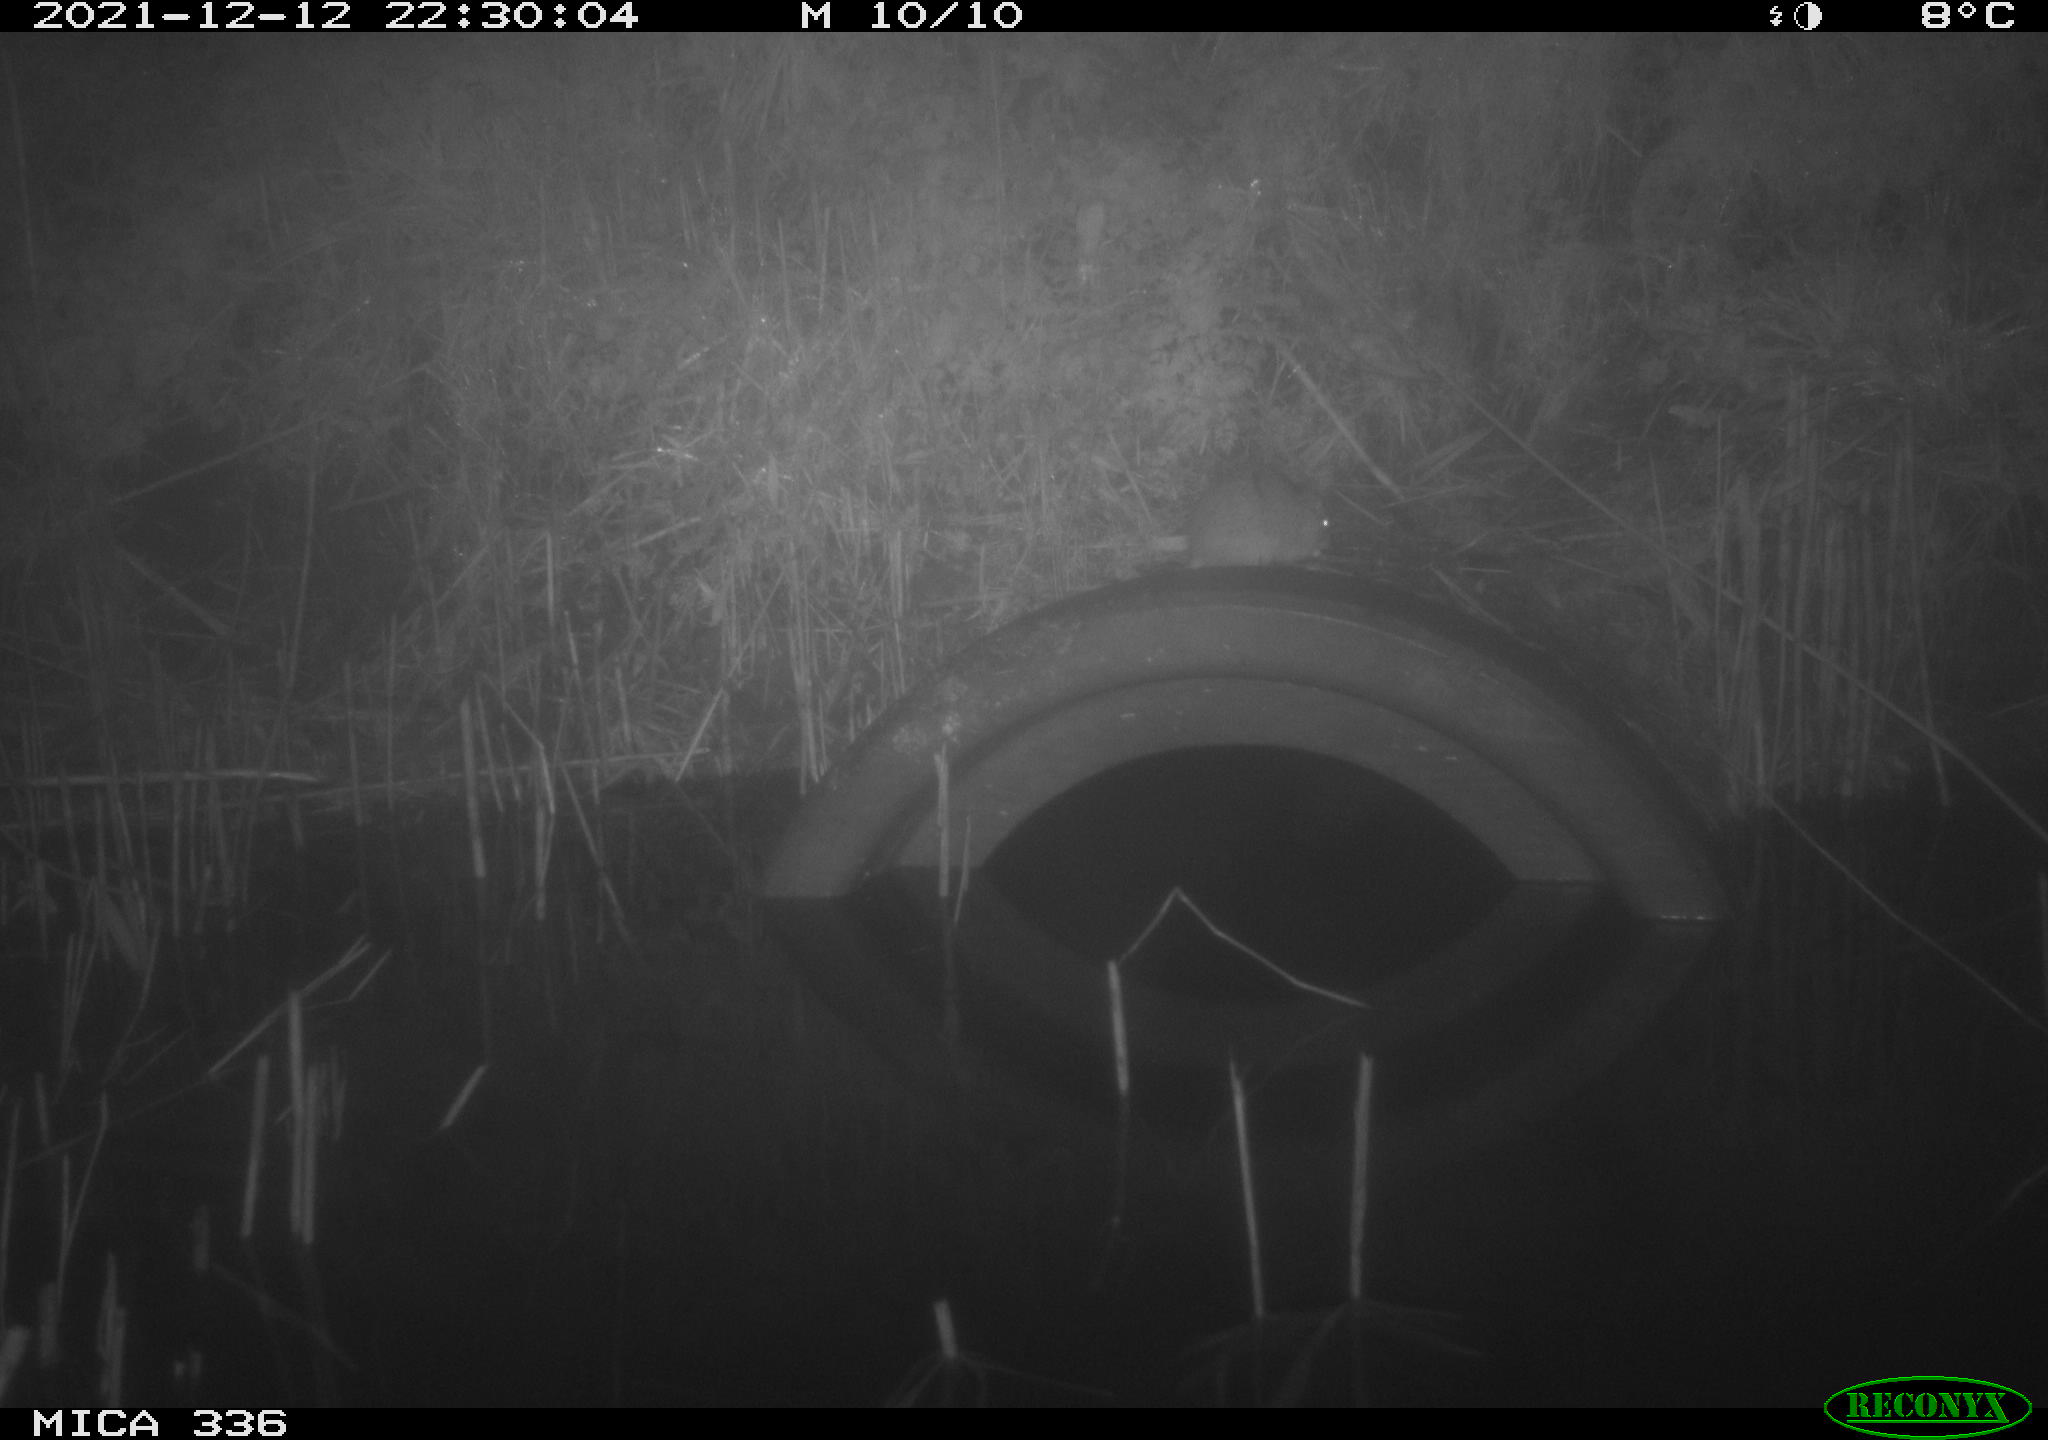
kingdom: Animalia
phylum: Chordata
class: Mammalia
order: Rodentia
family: Muridae
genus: Rattus
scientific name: Rattus norvegicus
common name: Brown rat
